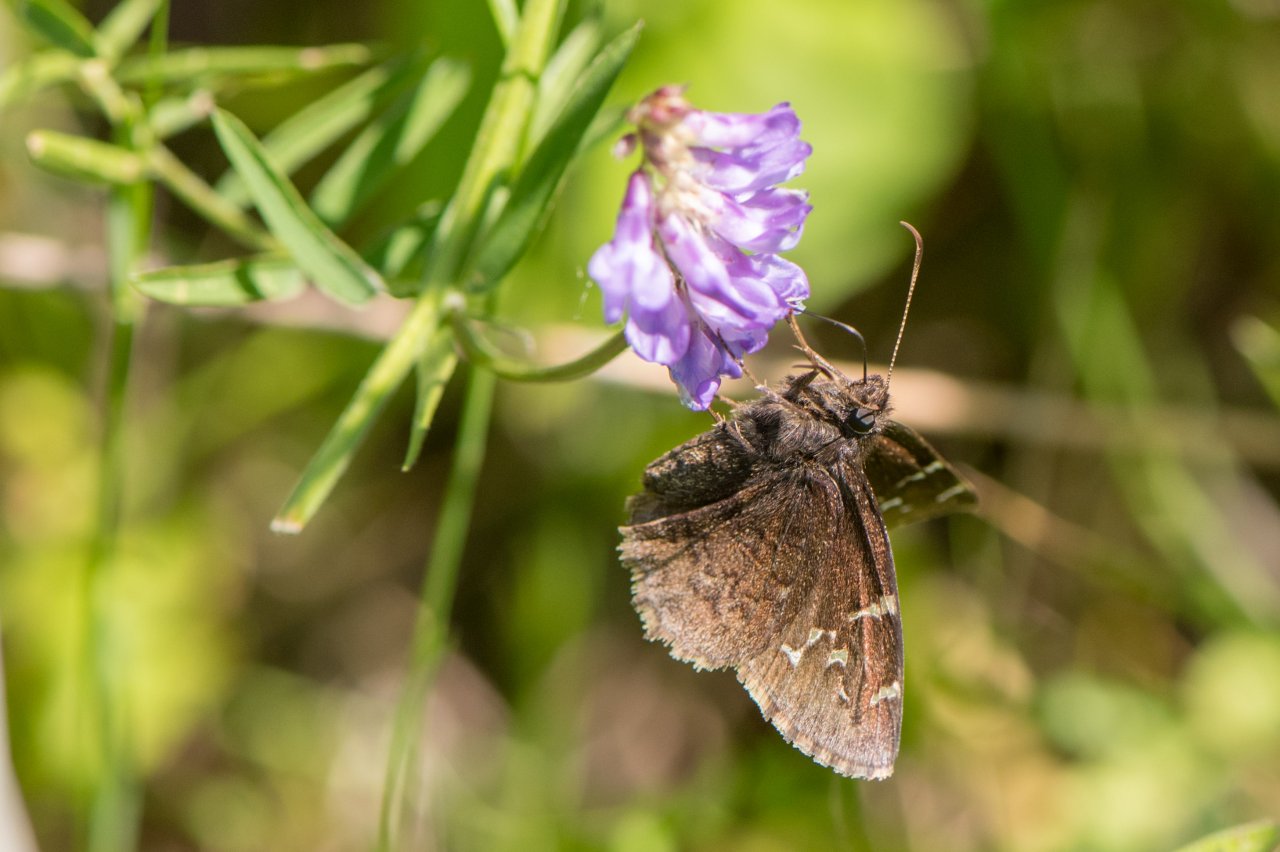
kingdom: Animalia
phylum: Arthropoda
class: Insecta
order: Lepidoptera
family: Hesperiidae
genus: Autochton
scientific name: Autochton
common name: Northern Cloudywing
